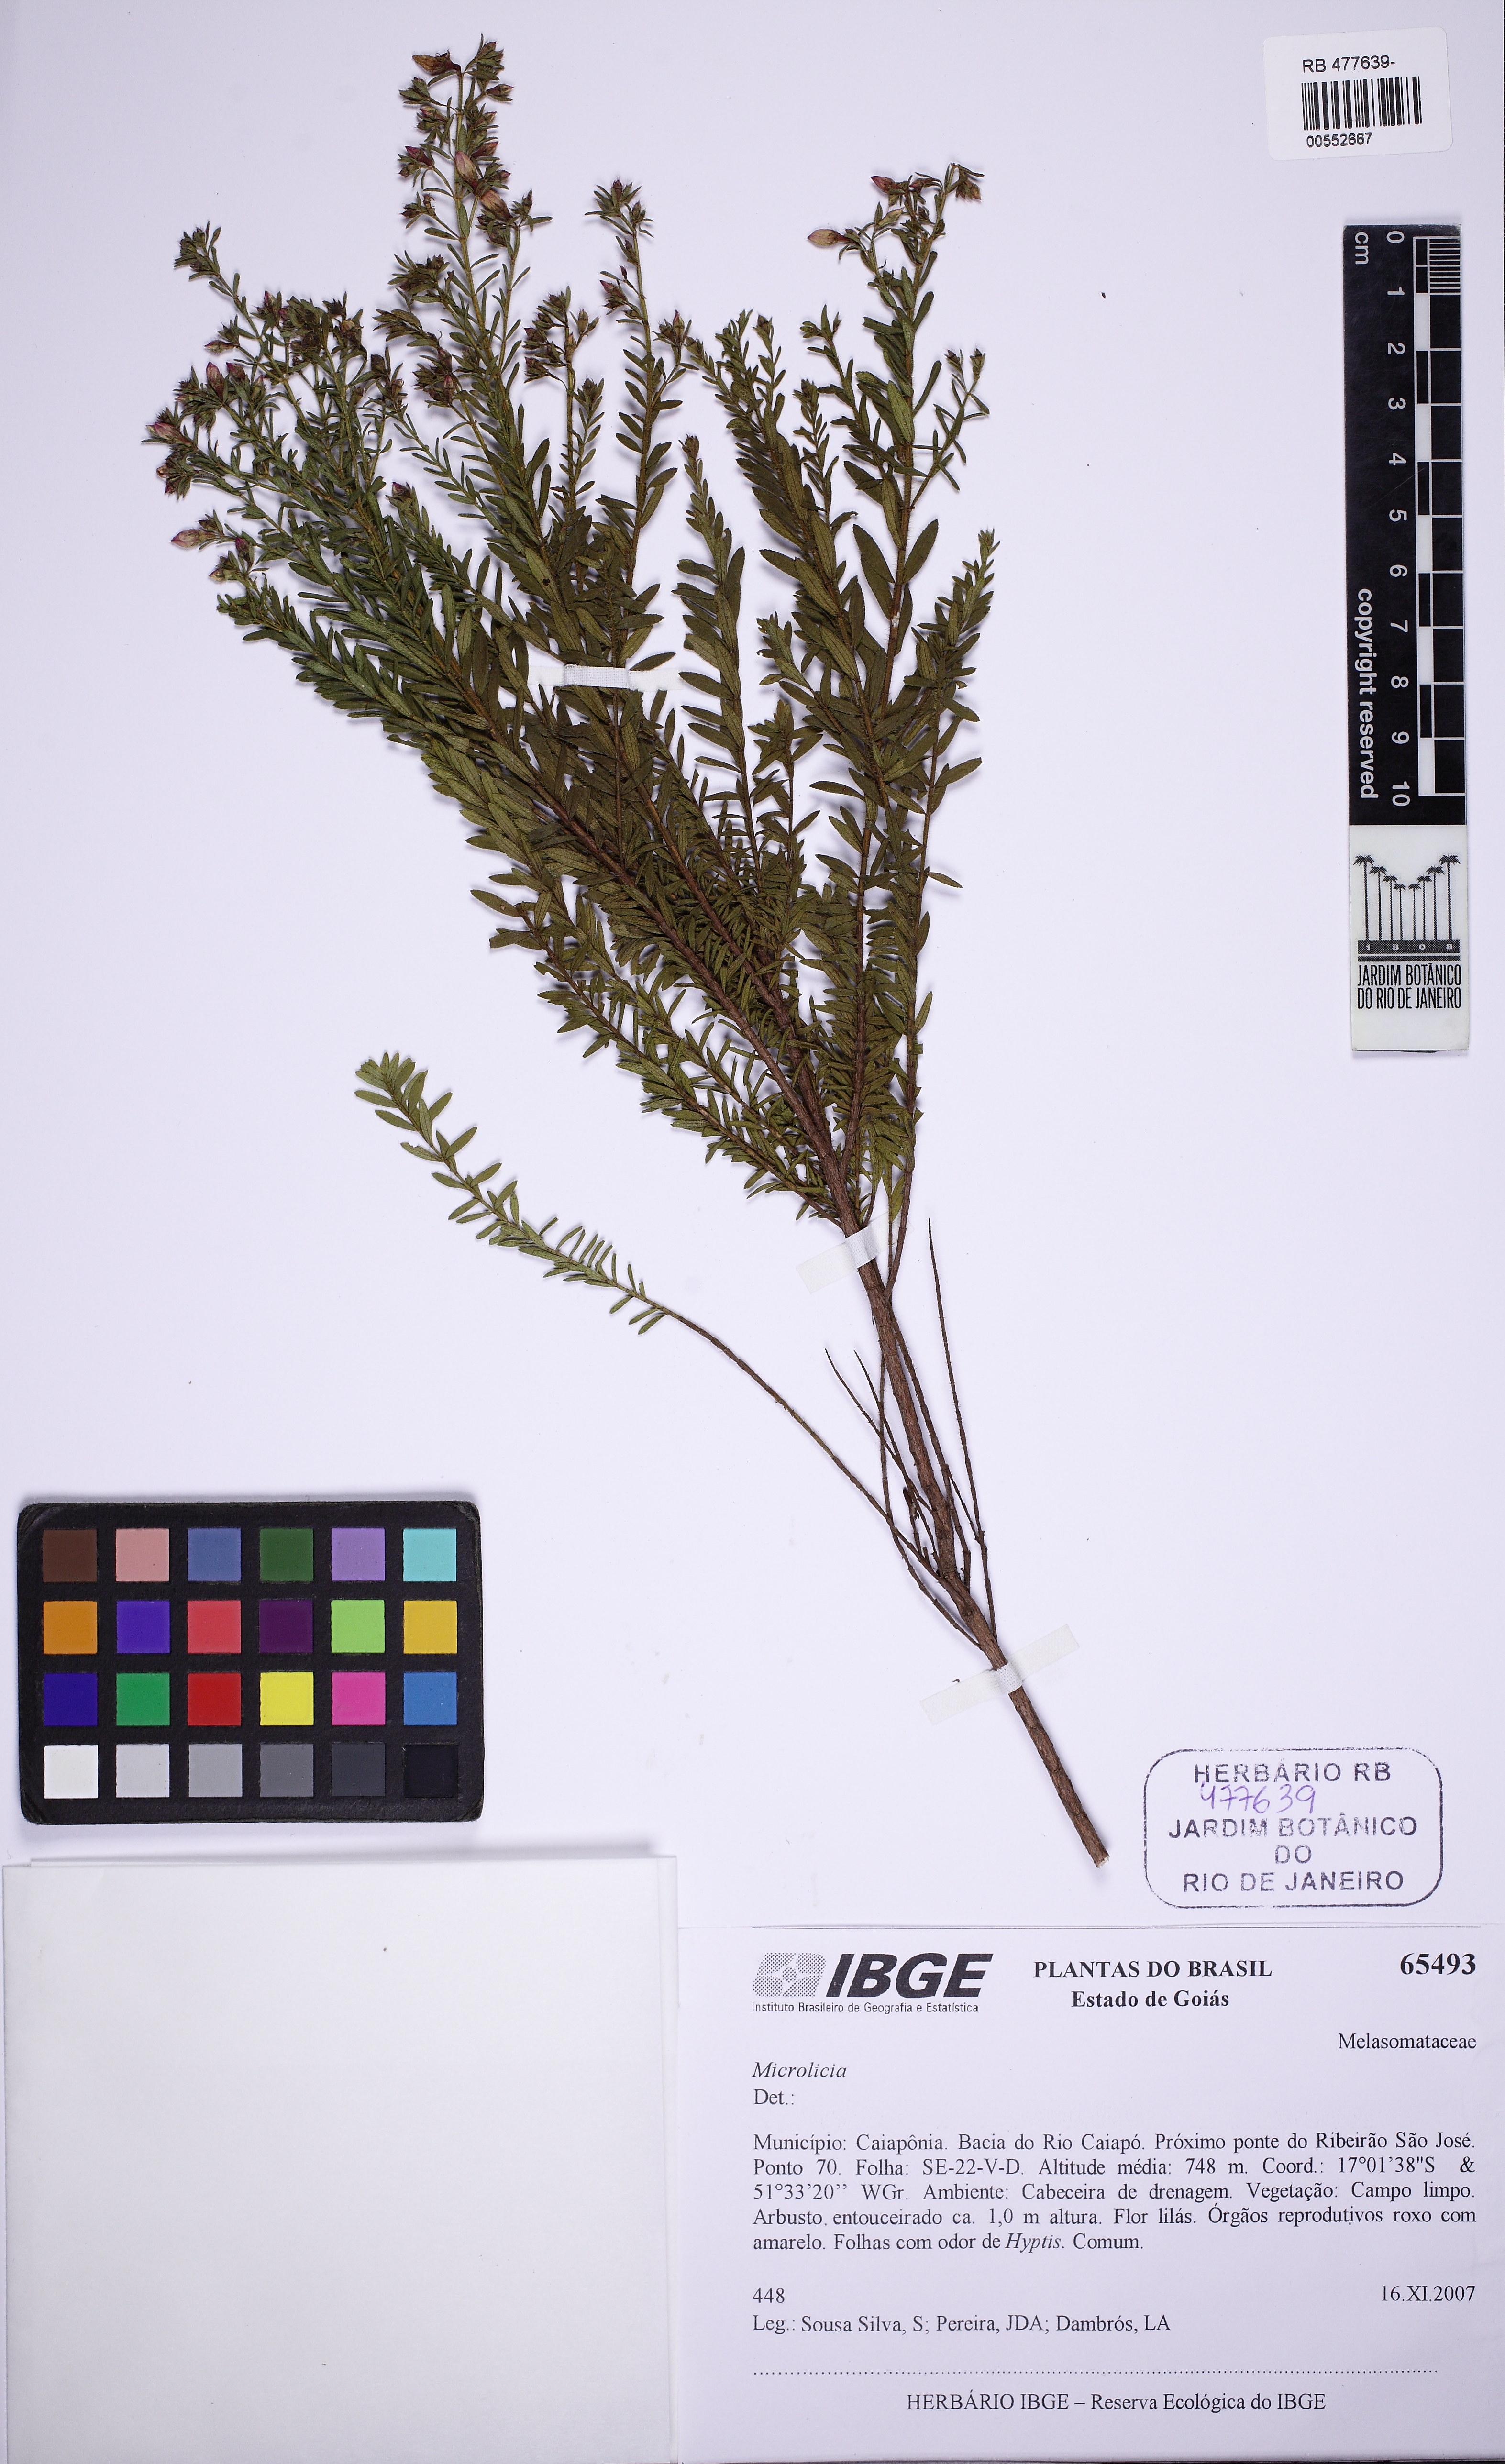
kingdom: Plantae
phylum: Tracheophyta
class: Magnoliopsida
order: Myrtales
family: Melastomataceae
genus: Microlicia
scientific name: Microlicia helvola
